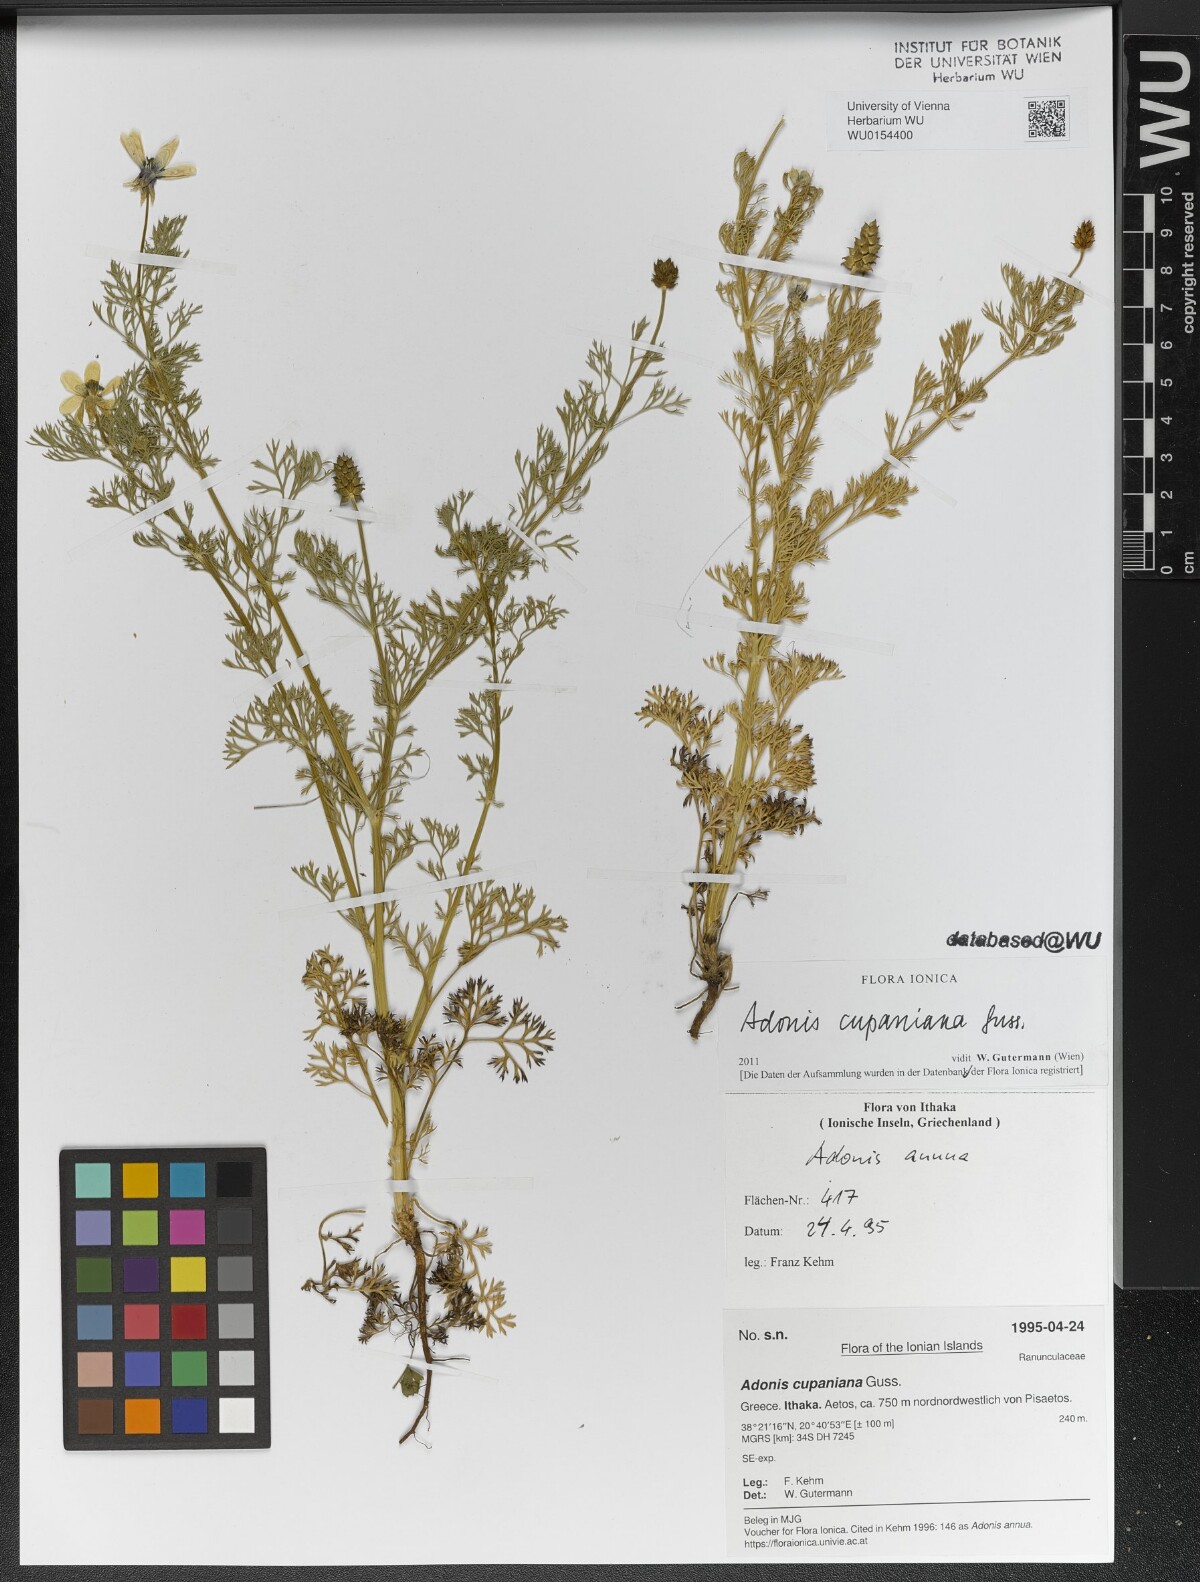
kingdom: Plantae
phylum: Tracheophyta
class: Magnoliopsida
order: Ranunculales
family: Ranunculaceae
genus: Adonis
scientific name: Adonis annua
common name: Pheasant's-eye
